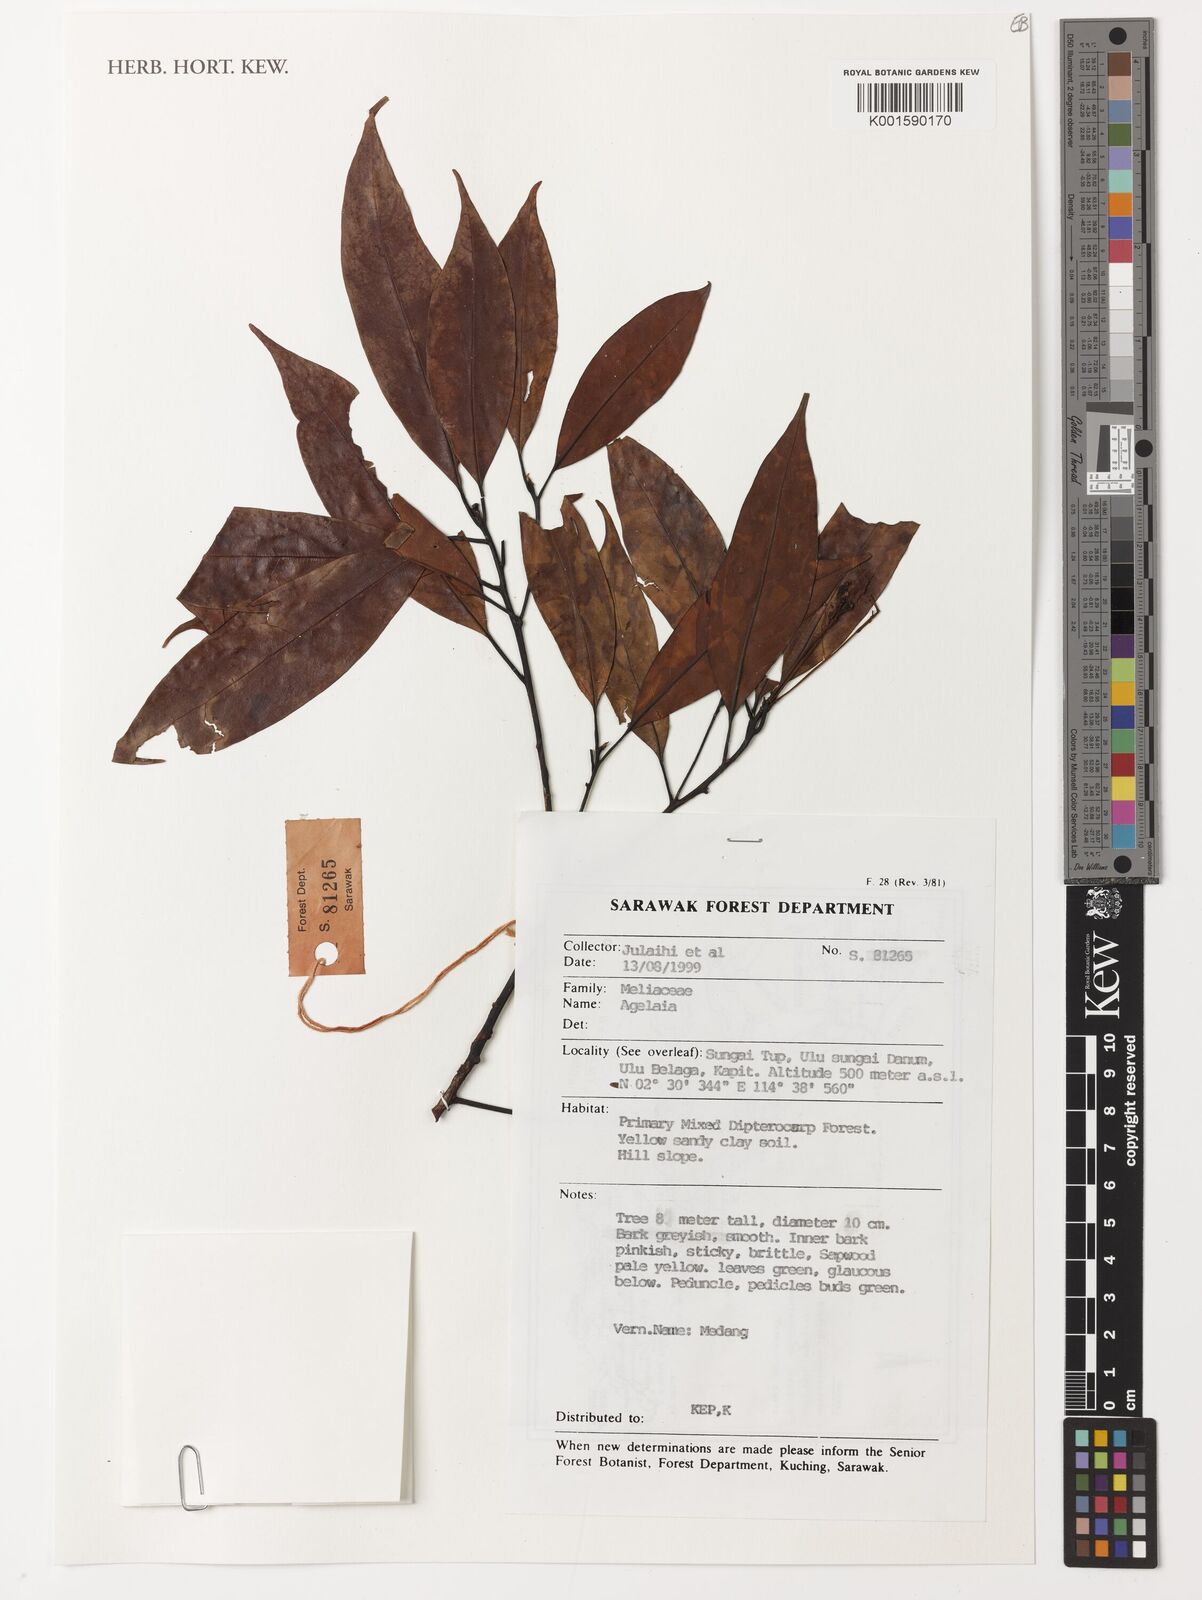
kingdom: Plantae
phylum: Tracheophyta
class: Magnoliopsida
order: Sapindales
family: Meliaceae
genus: Aglaia
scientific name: Aglaia
